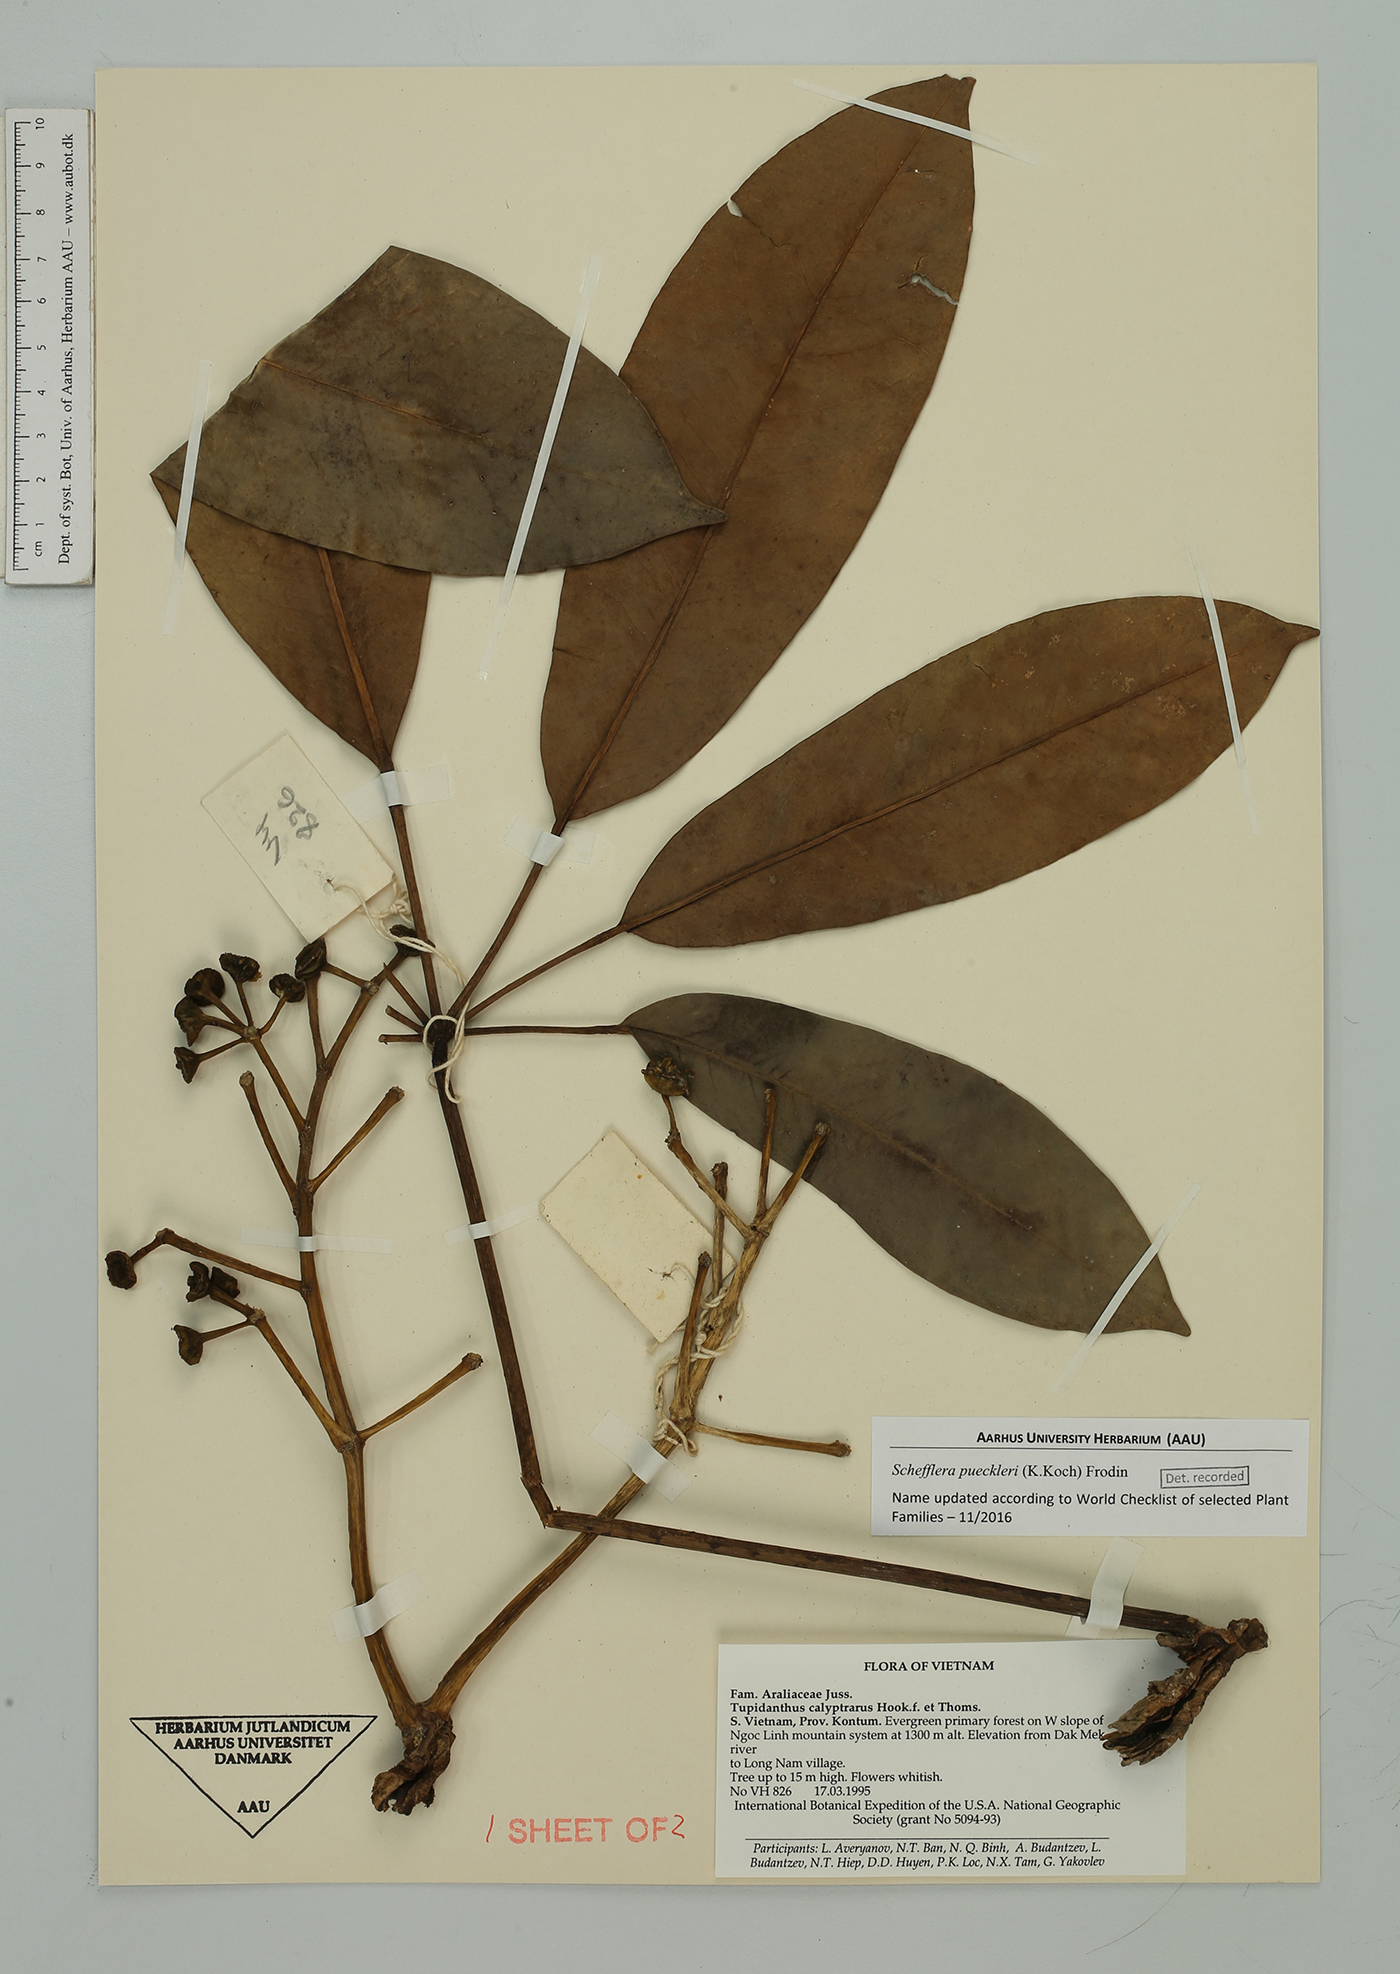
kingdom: Plantae
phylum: Tracheophyta
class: Magnoliopsida
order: Apiales
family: Araliaceae
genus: Heptapleurum
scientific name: Heptapleurum calyptratum
